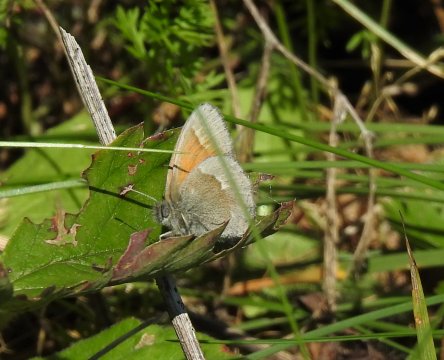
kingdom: Animalia
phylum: Arthropoda
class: Insecta
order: Lepidoptera
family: Nymphalidae
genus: Coenonympha
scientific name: Coenonympha tullia
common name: Large Heath
